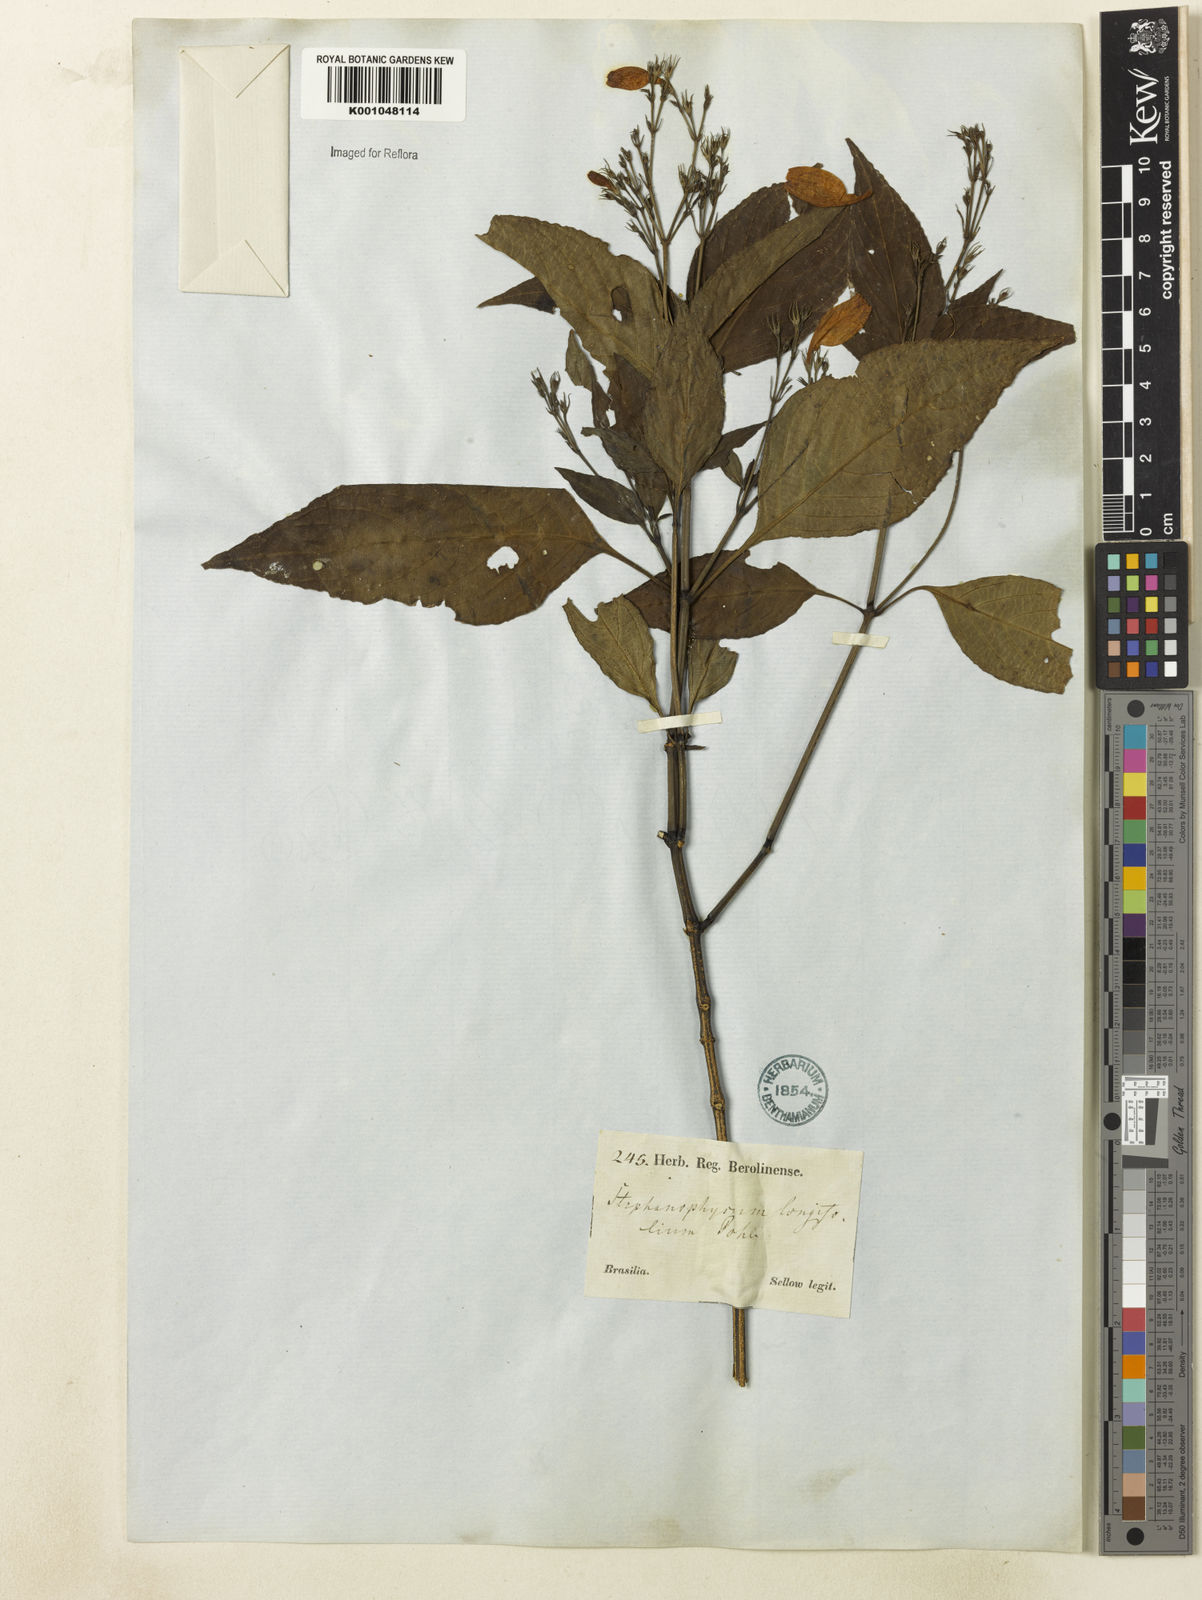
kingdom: Plantae
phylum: Tracheophyta
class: Magnoliopsida
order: Lamiales
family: Acanthaceae
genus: Ruellia
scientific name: Ruellia brevifolia
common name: Tropical wild petunia
